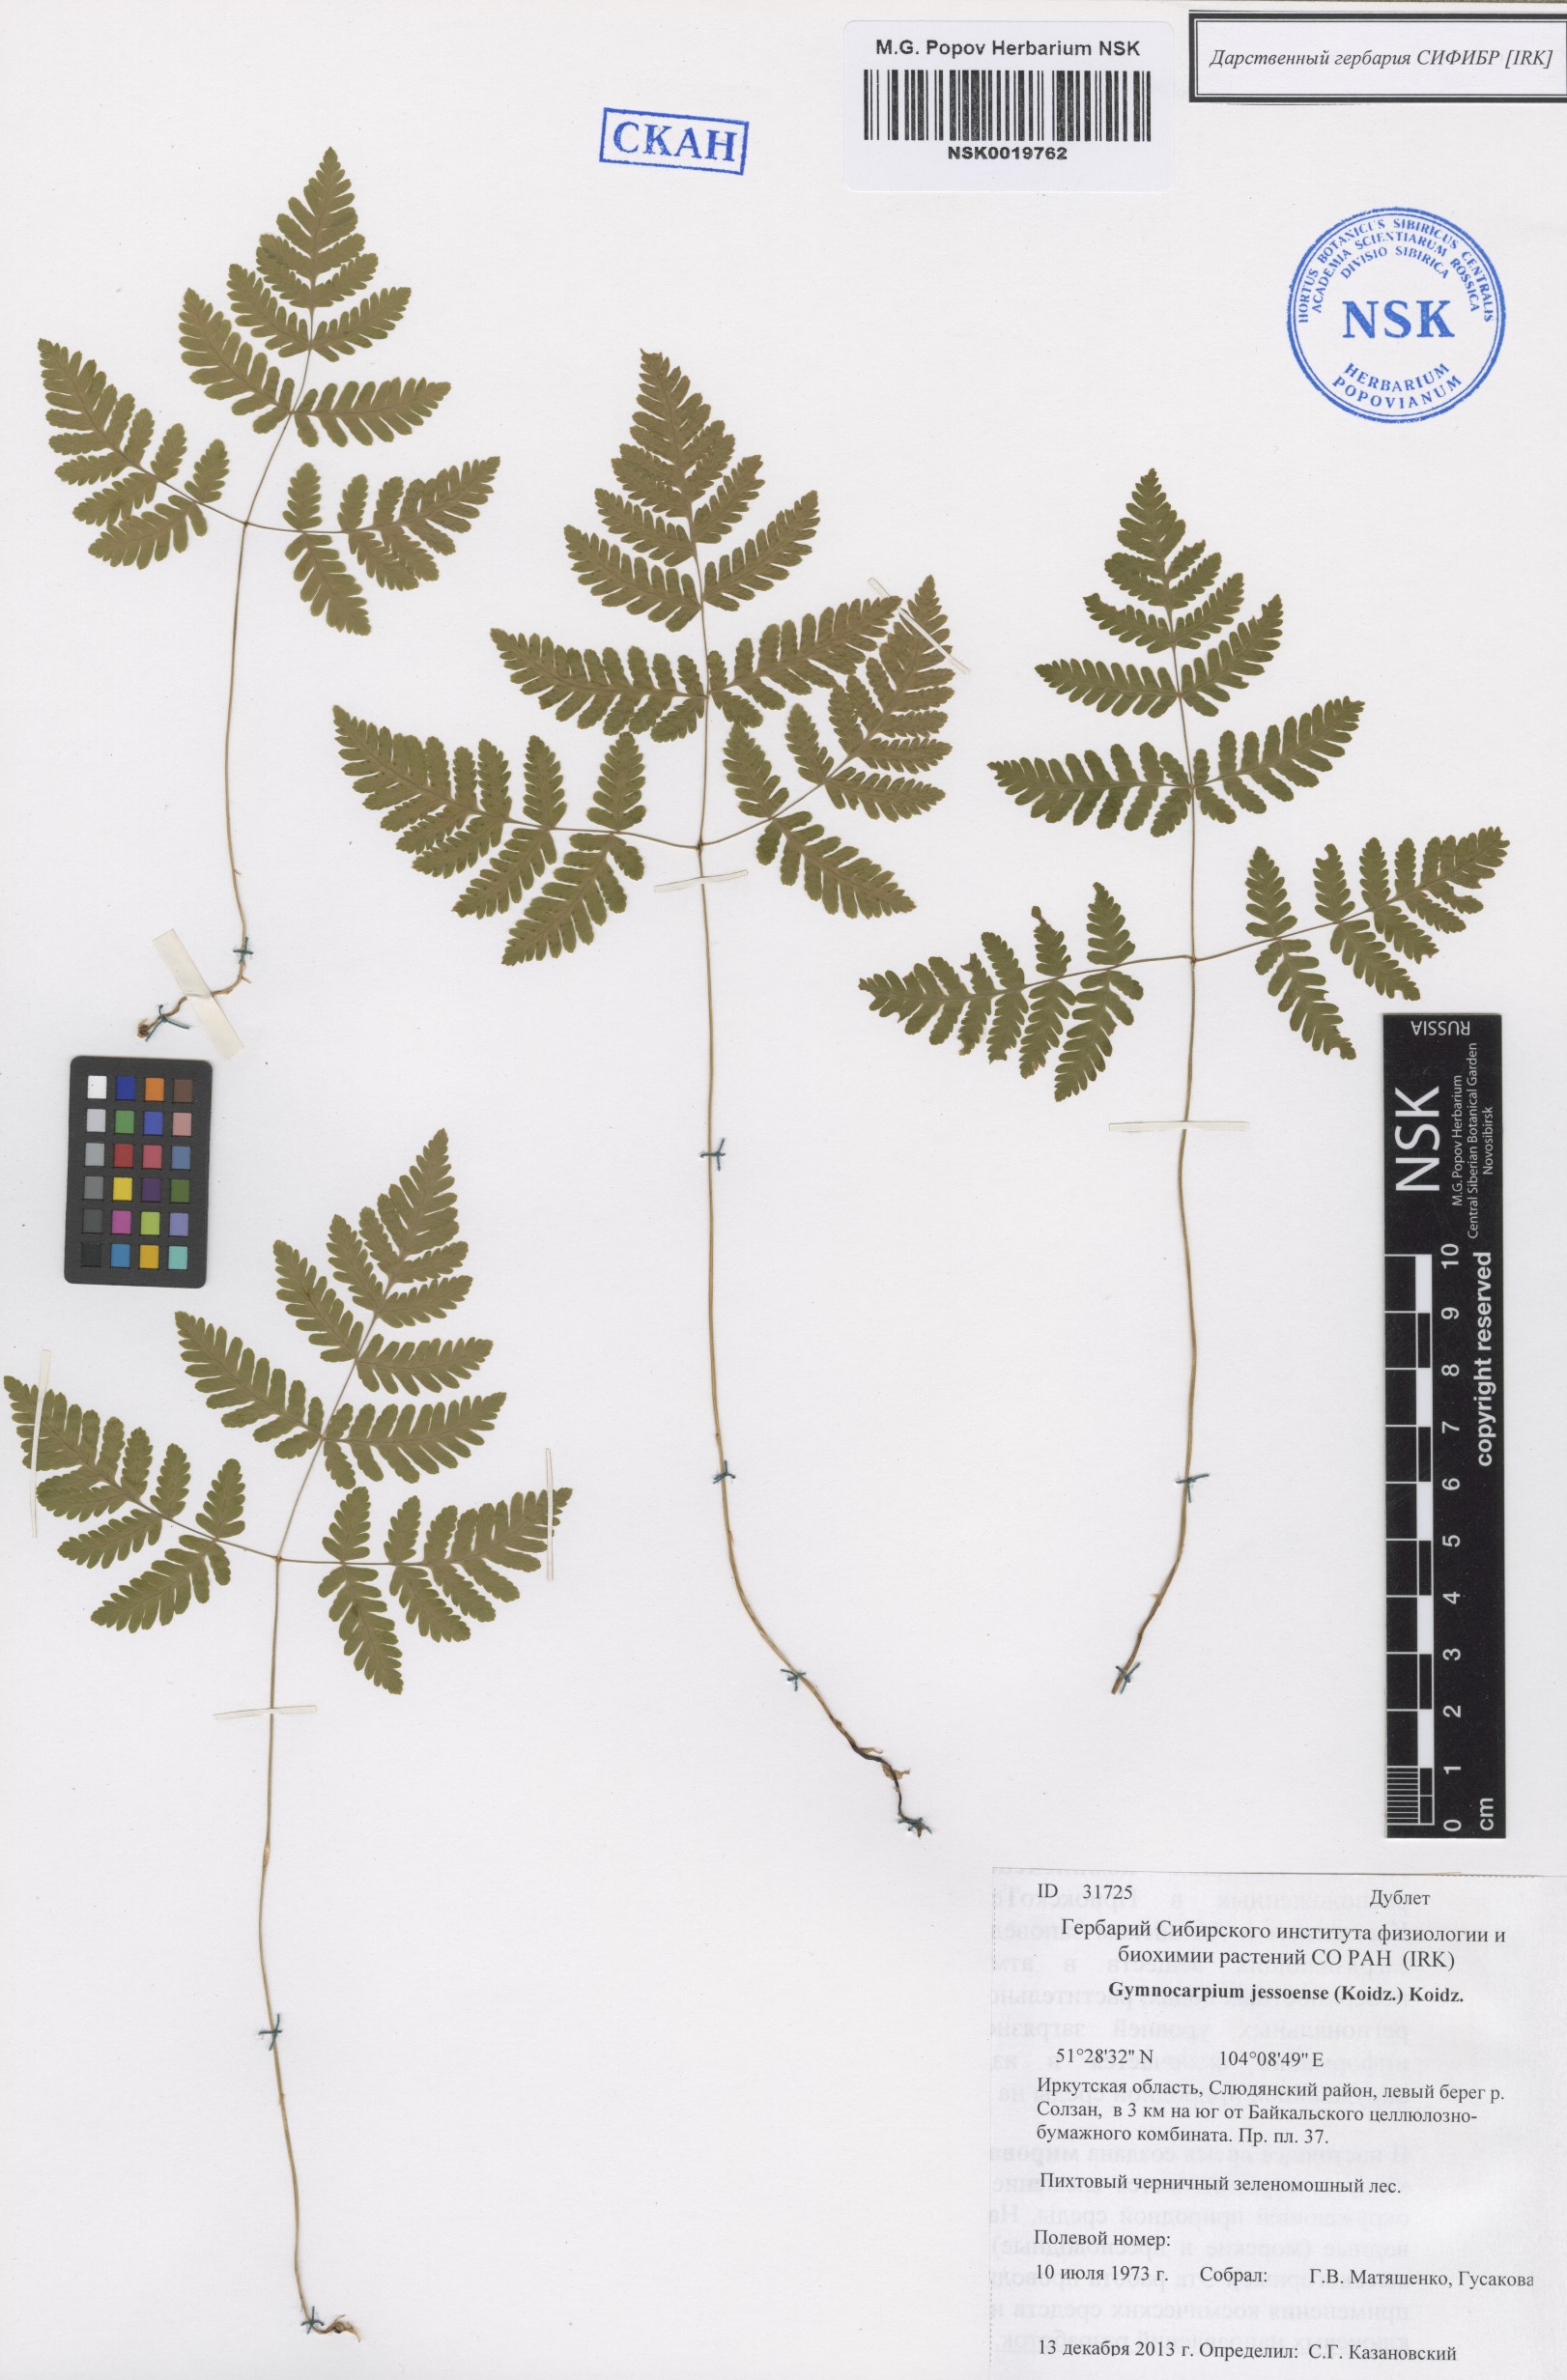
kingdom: Plantae
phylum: Tracheophyta
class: Polypodiopsida
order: Polypodiales
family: Cystopteridaceae
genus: Gymnocarpium
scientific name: Gymnocarpium jessoense
